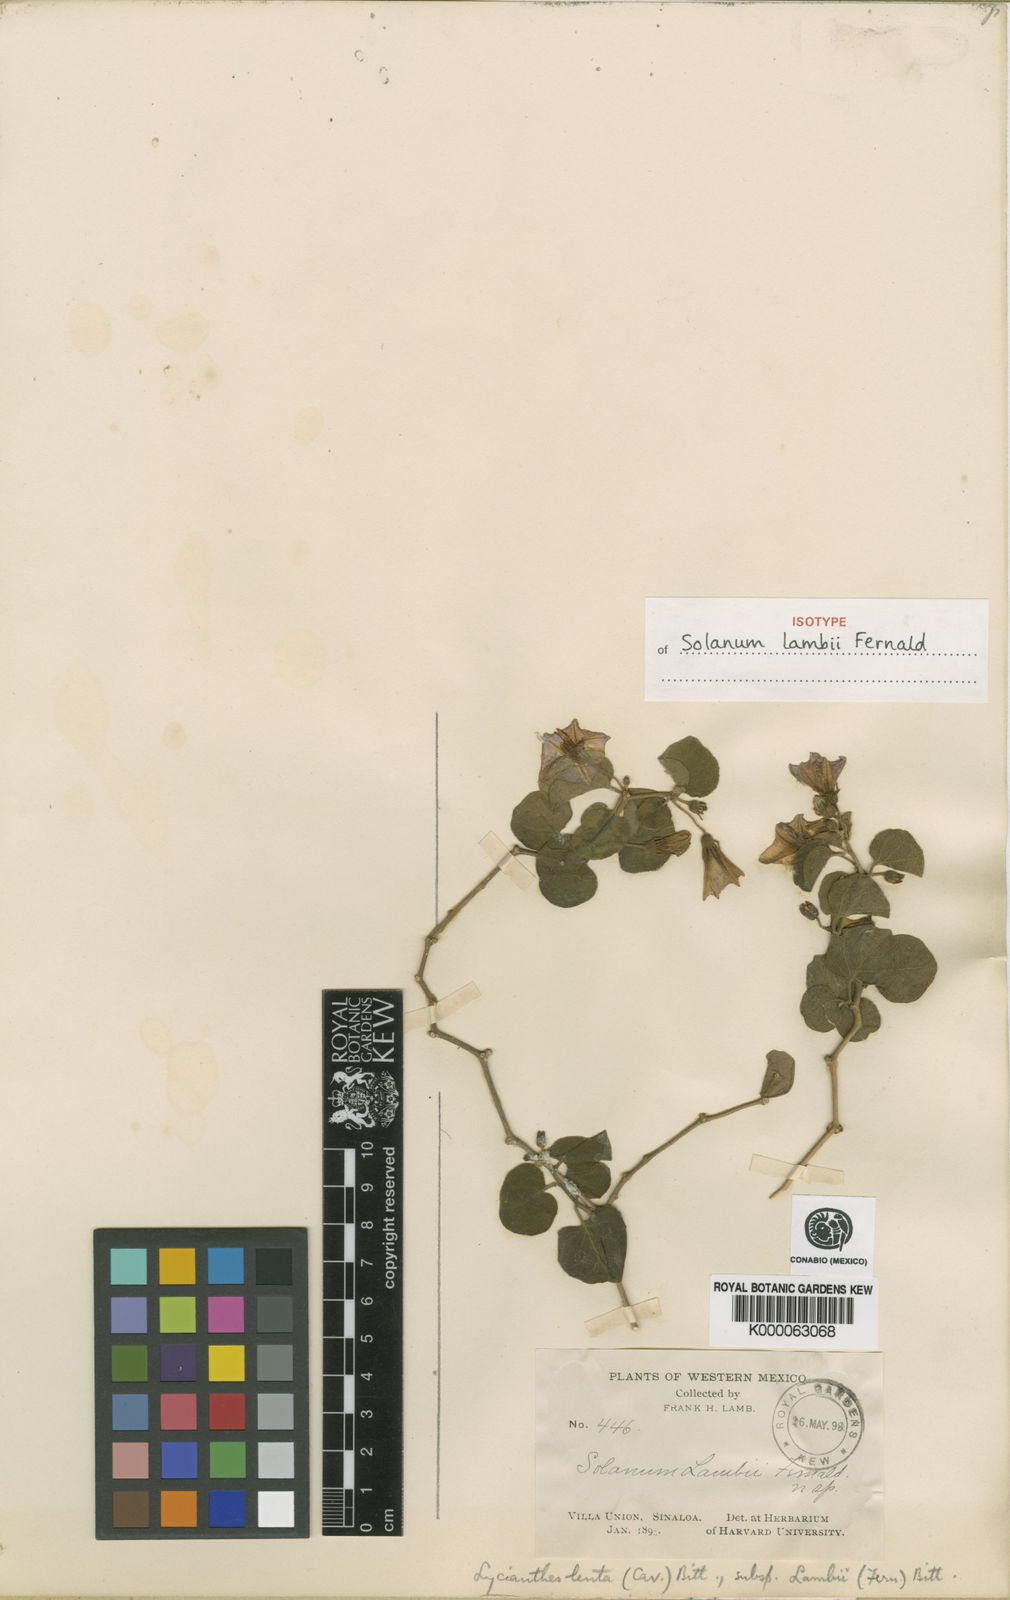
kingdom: Plantae
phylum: Tracheophyta
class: Magnoliopsida
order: Solanales
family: Solanaceae
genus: Lycianthes
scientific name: Lycianthes scandens
